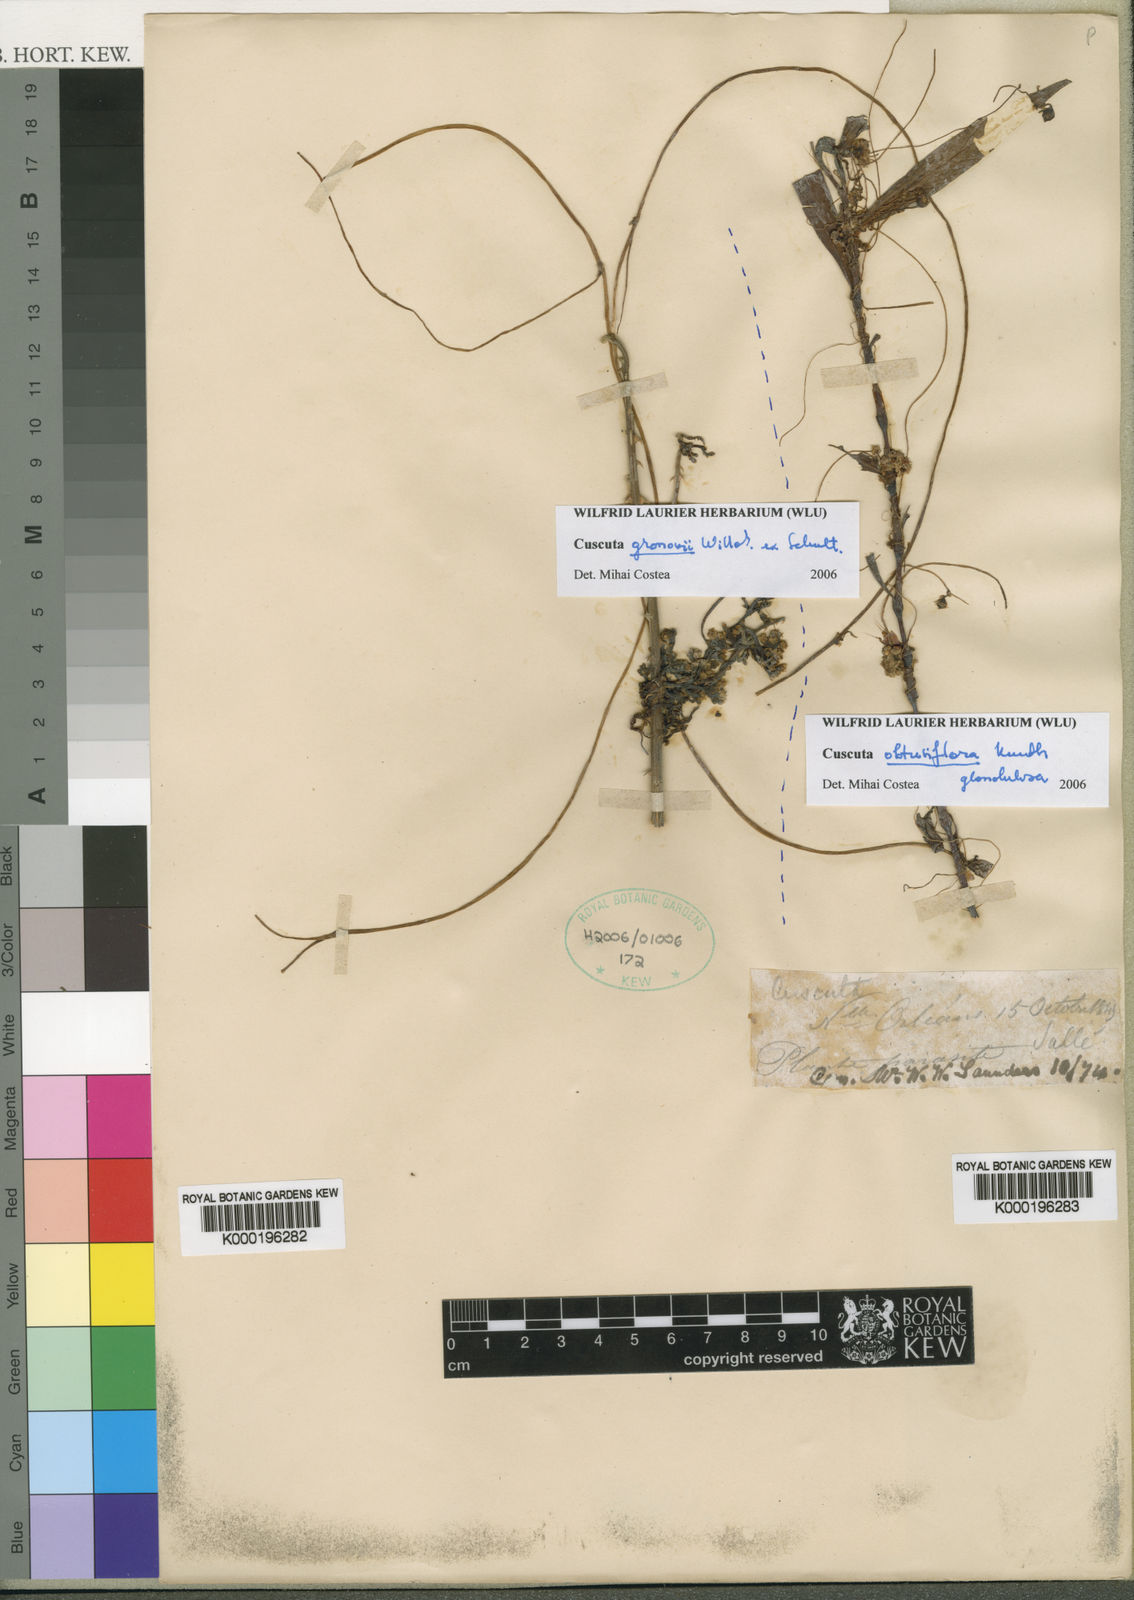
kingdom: Plantae
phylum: Tracheophyta
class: Magnoliopsida
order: Solanales
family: Convolvulaceae
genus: Cuscuta
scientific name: Cuscuta gronovii
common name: Common dodder
